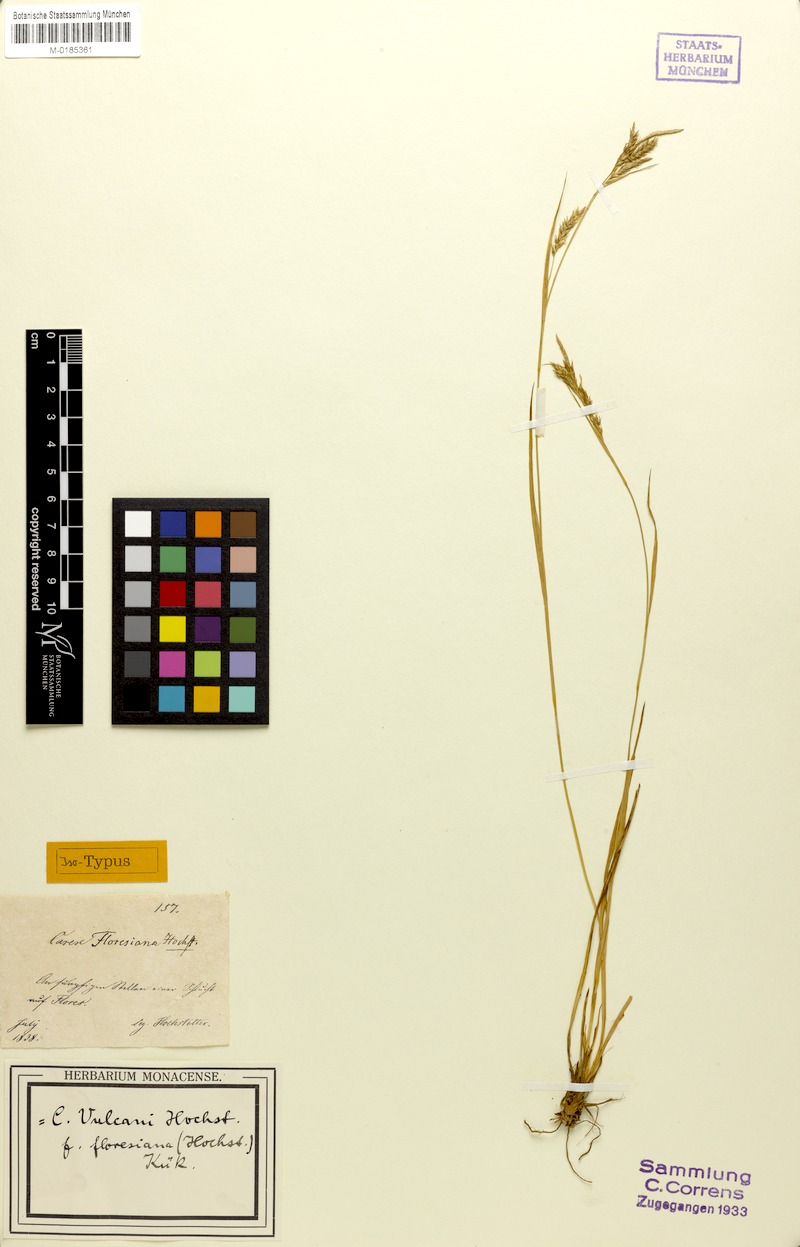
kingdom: Plantae
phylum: Tracheophyta
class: Liliopsida
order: Poales
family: Cyperaceae
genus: Carex
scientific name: Carex vulcani
